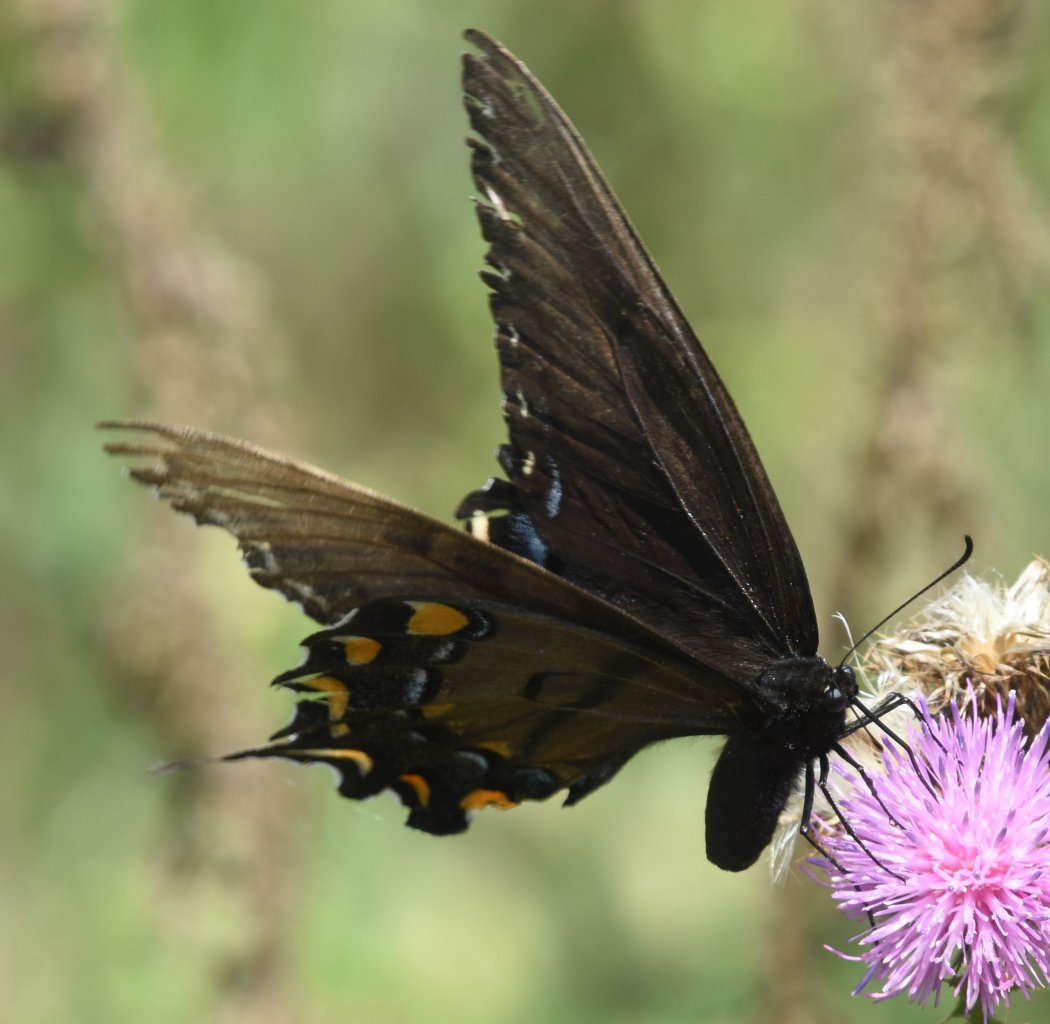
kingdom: Animalia
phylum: Arthropoda
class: Insecta
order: Lepidoptera
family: Papilionidae
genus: Pterourus
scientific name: Pterourus glaucus
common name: Eastern Tiger Swallowtail
